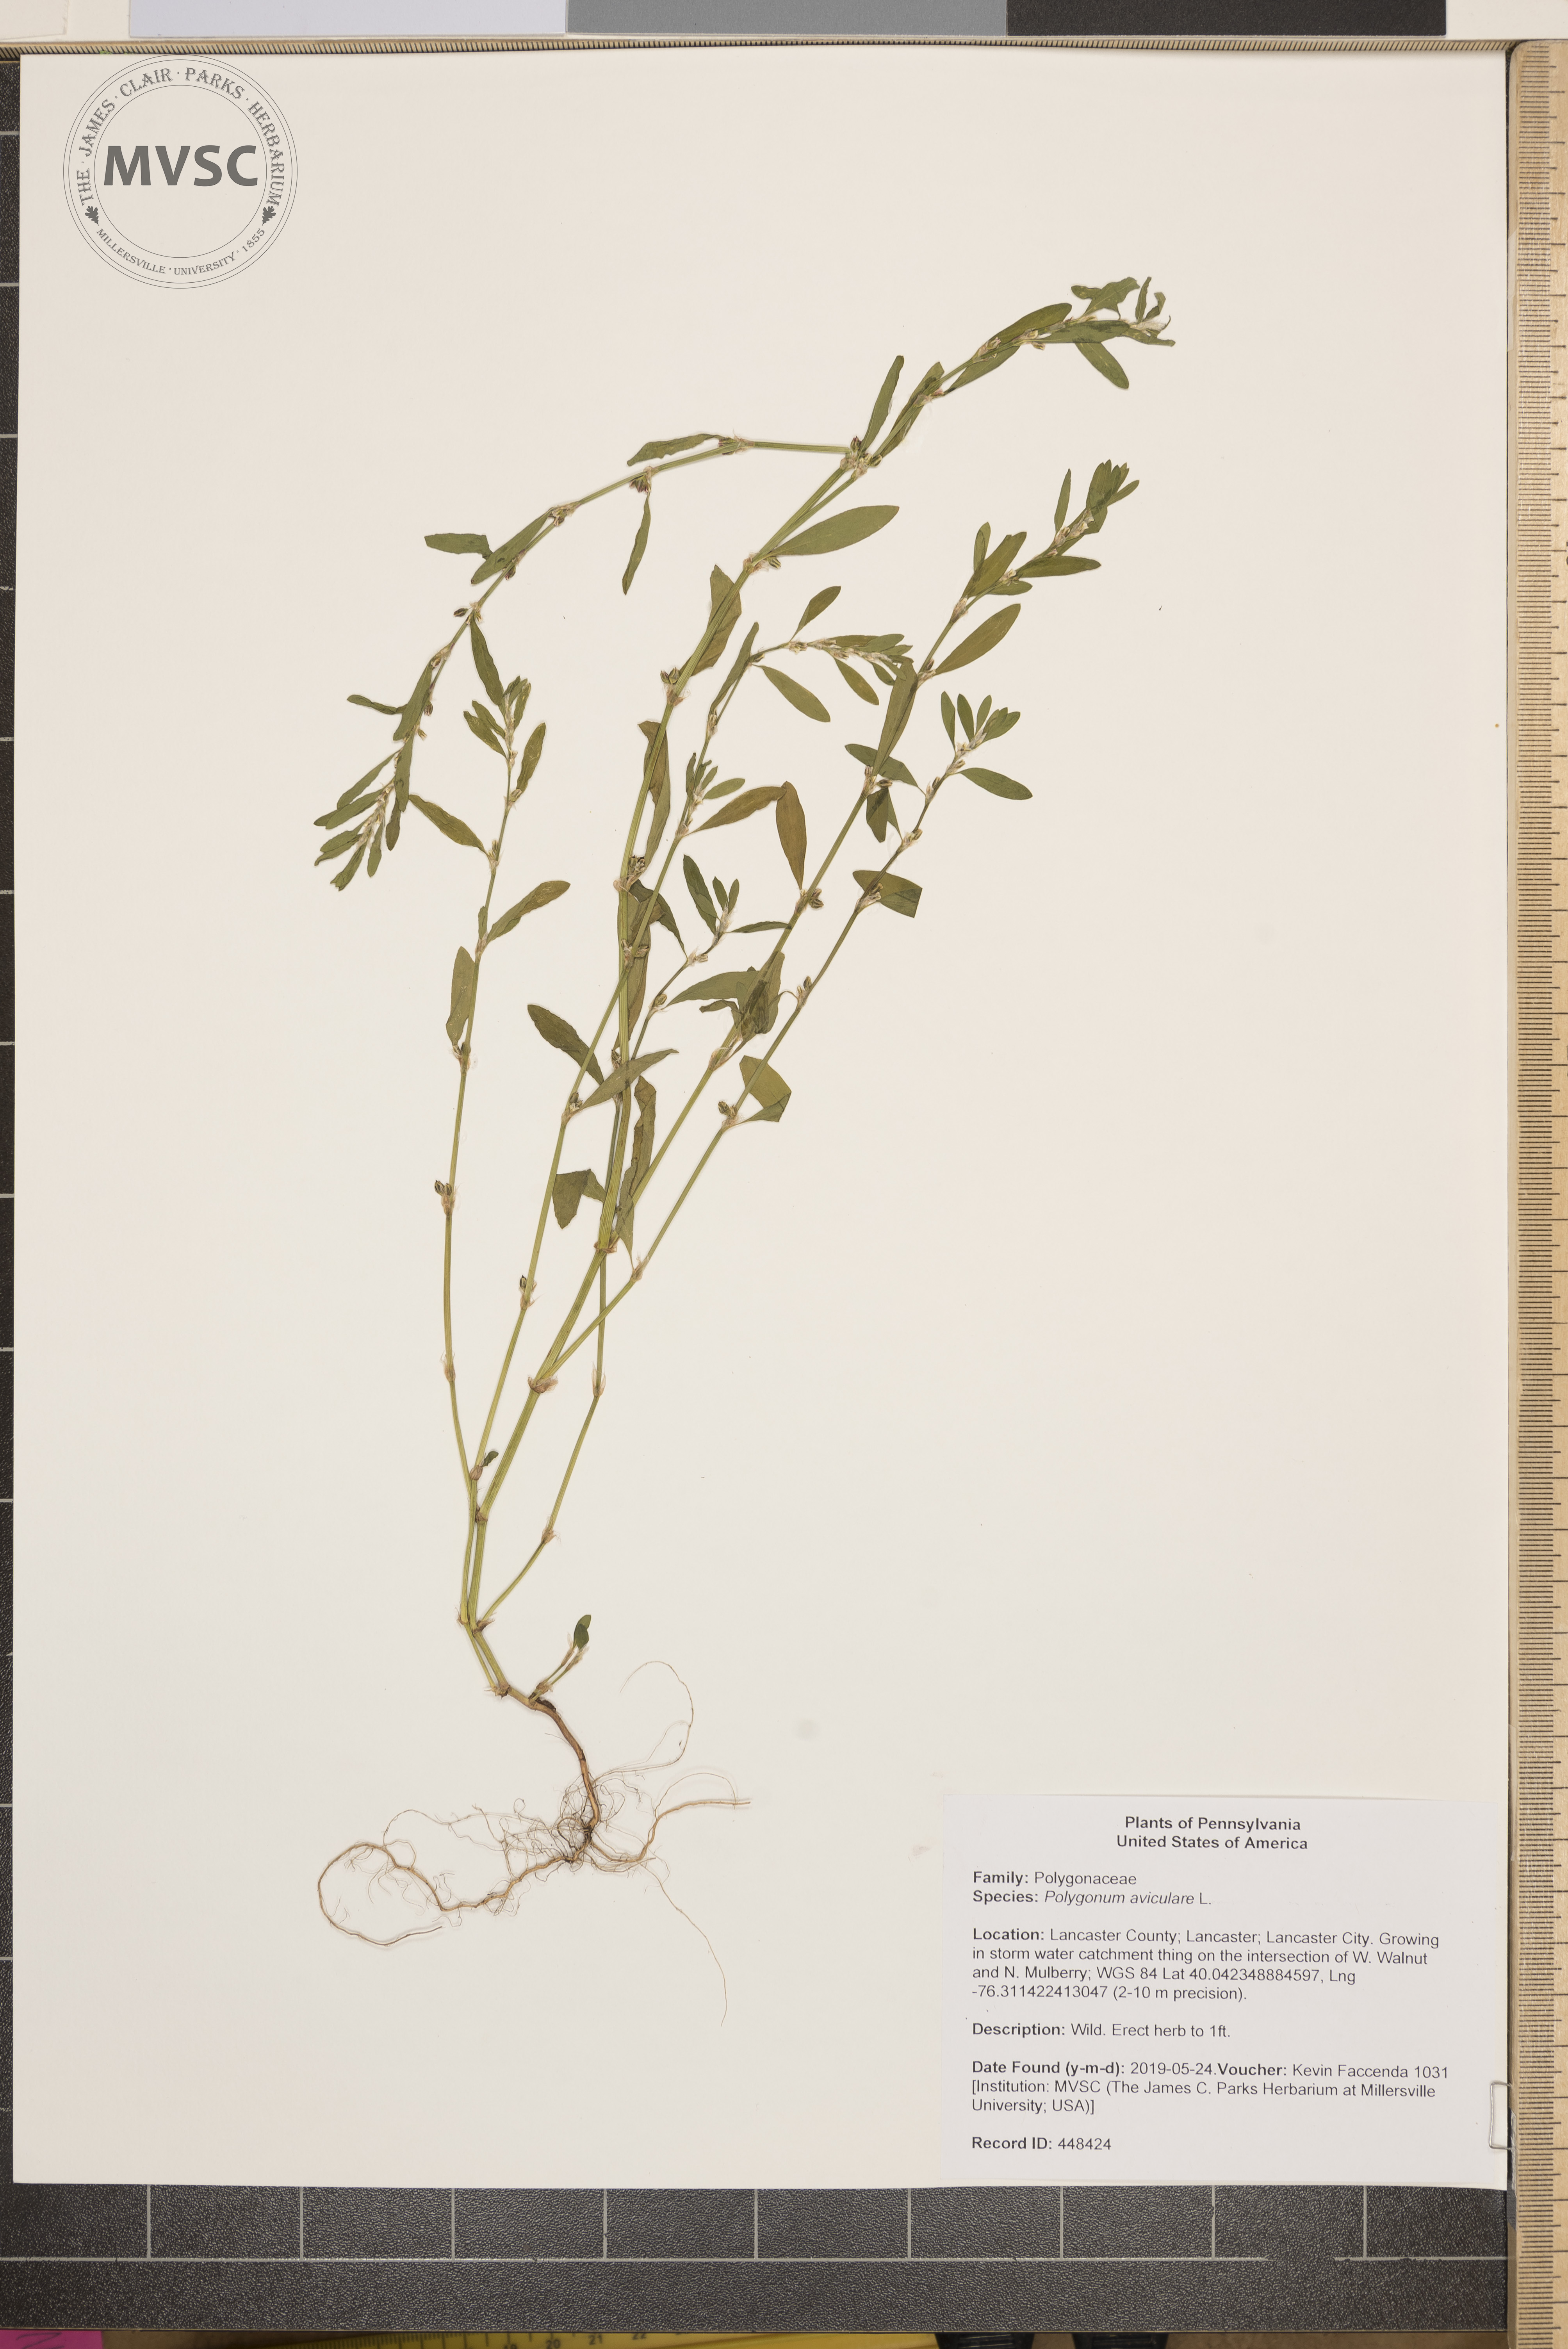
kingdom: Plantae
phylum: Tracheophyta
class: Magnoliopsida
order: Caryophyllales
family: Polygonaceae
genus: Polygonum
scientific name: Polygonum aviculare
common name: Prostrate knotweed
